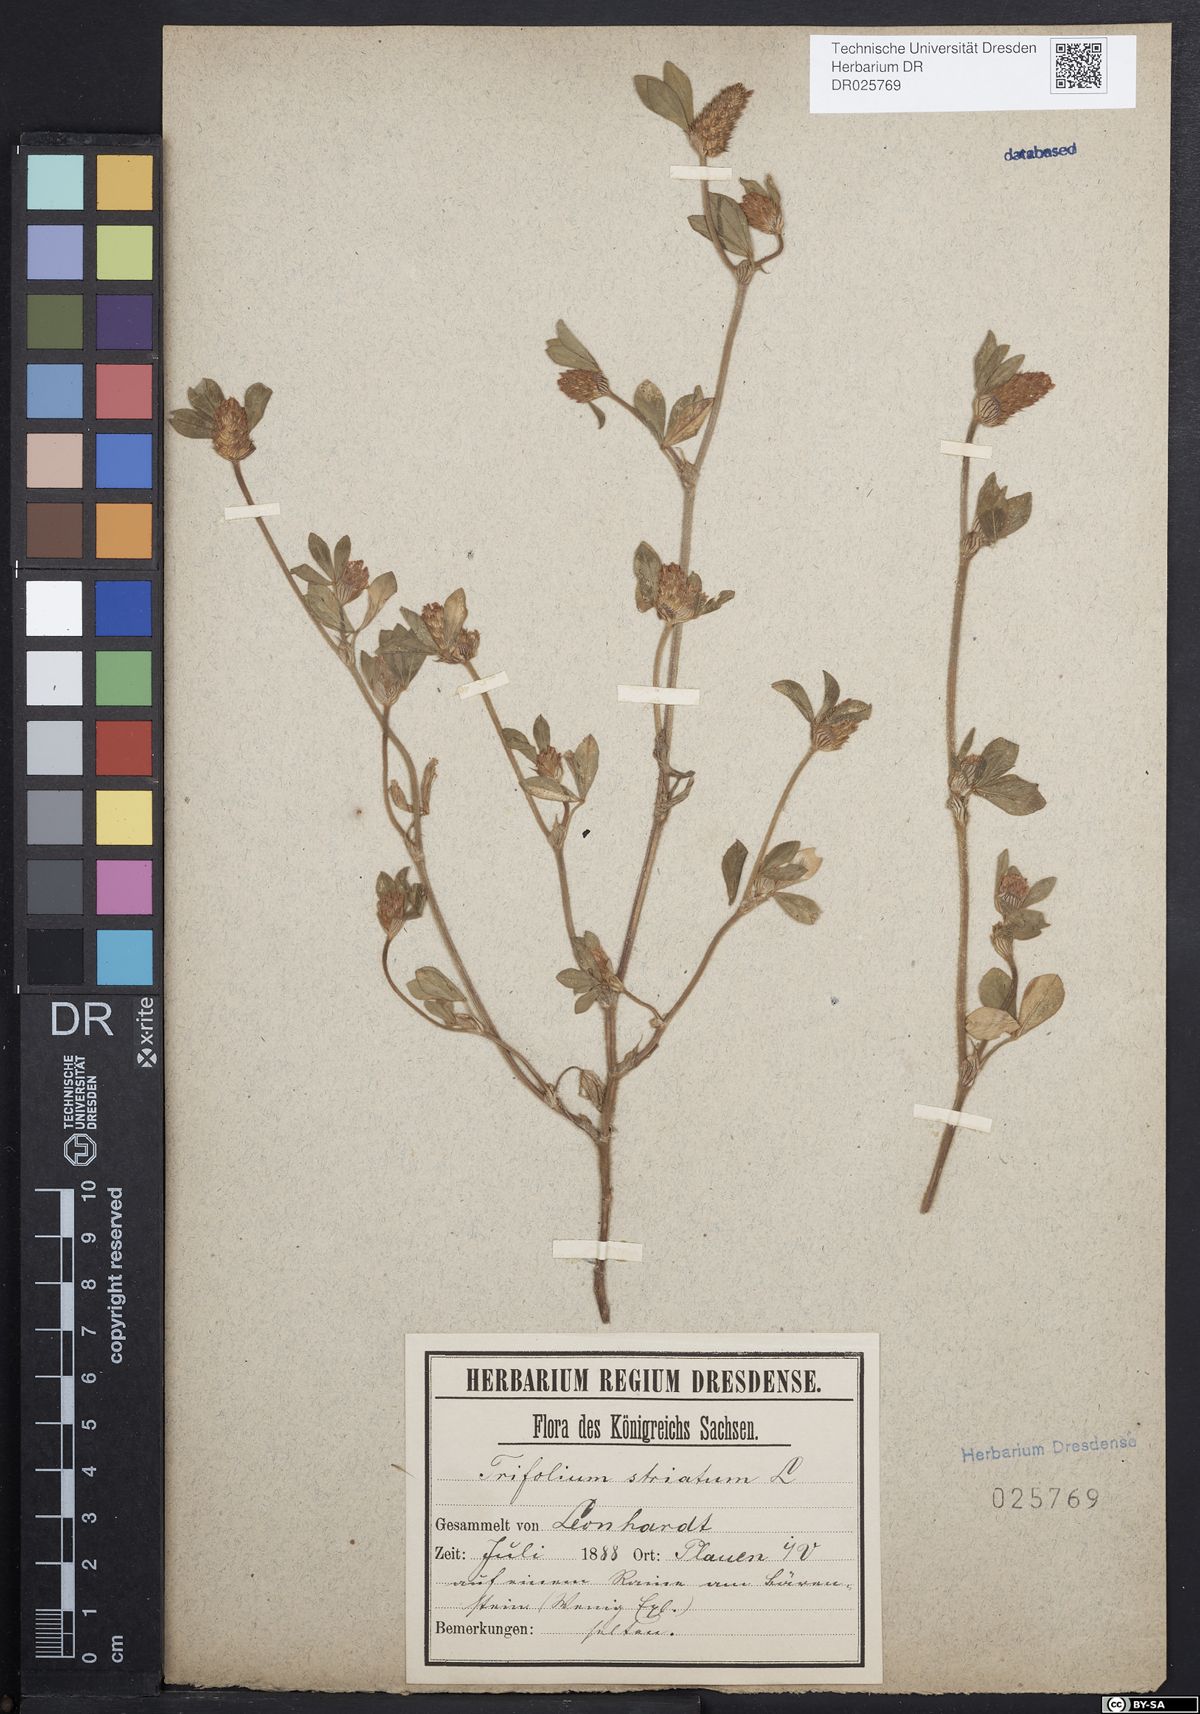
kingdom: Plantae
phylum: Tracheophyta
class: Magnoliopsida
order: Fabales
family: Fabaceae
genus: Trifolium
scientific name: Trifolium striatum
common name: Knotted clover
